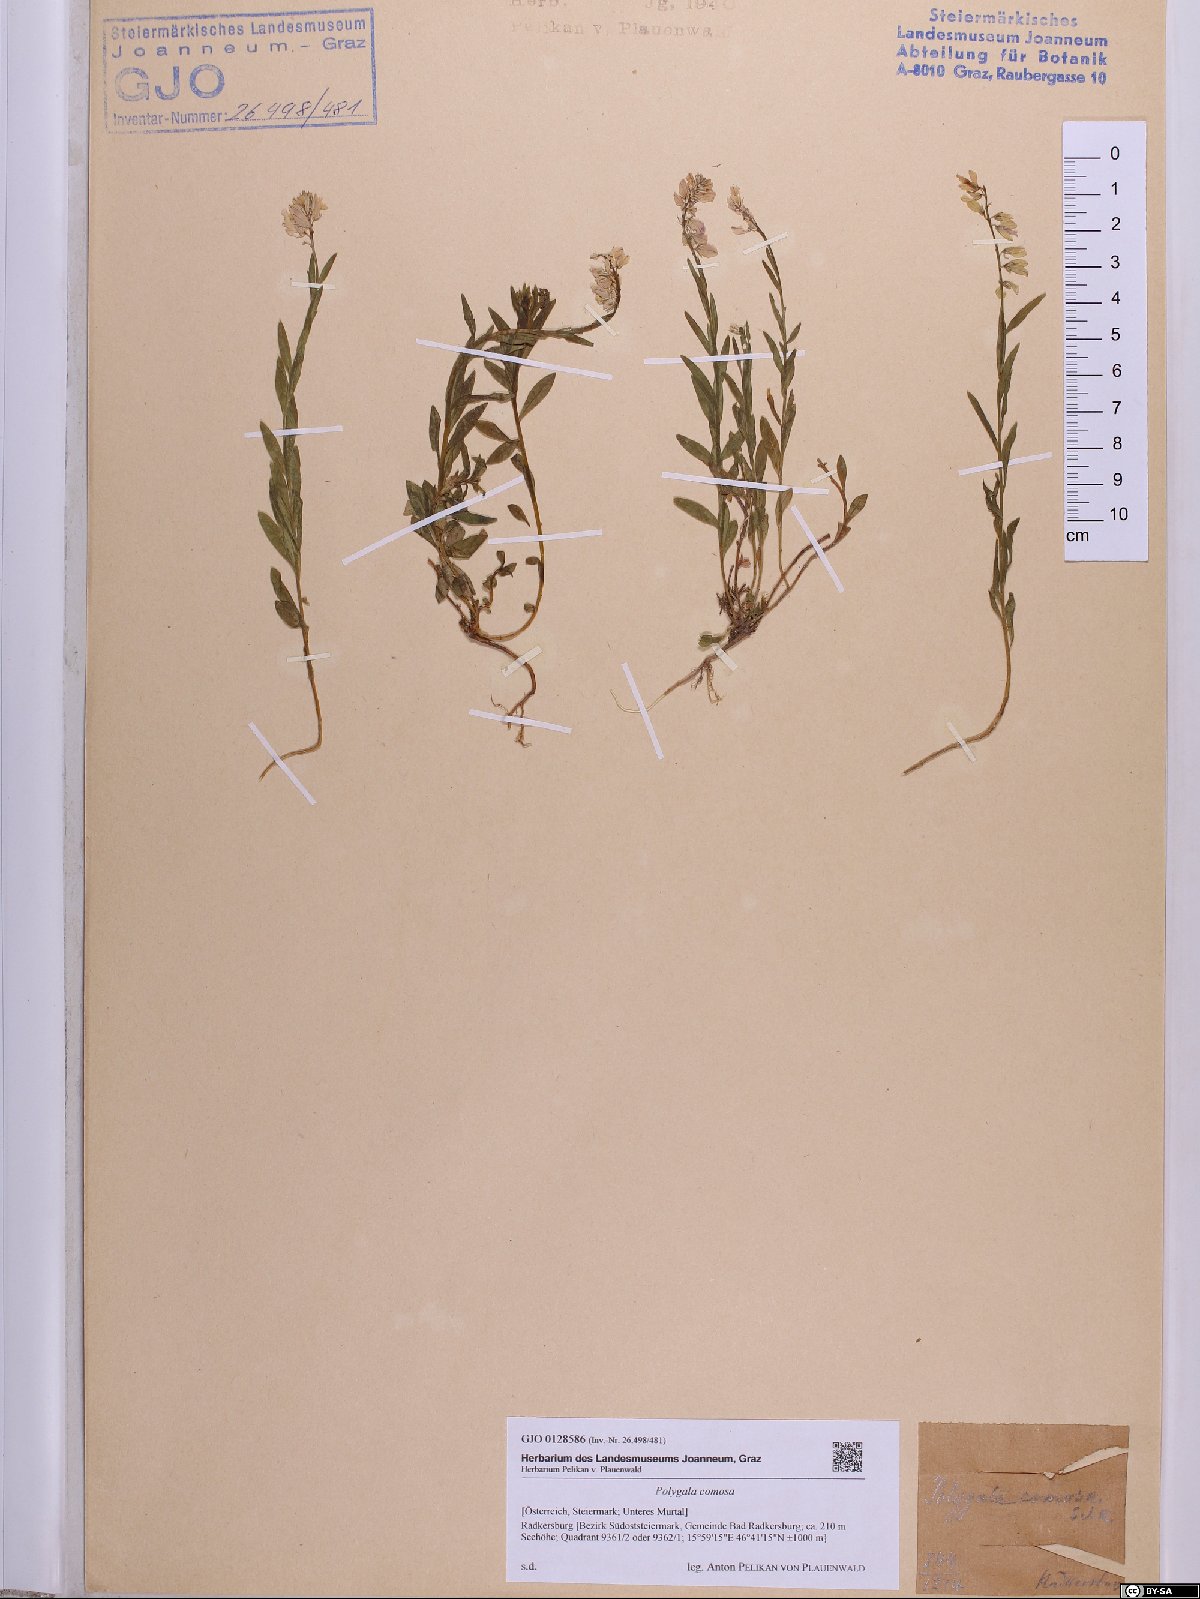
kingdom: Plantae
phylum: Tracheophyta
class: Magnoliopsida
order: Fabales
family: Polygalaceae
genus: Polygala
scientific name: Polygala comosa
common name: Tufted milkwort
